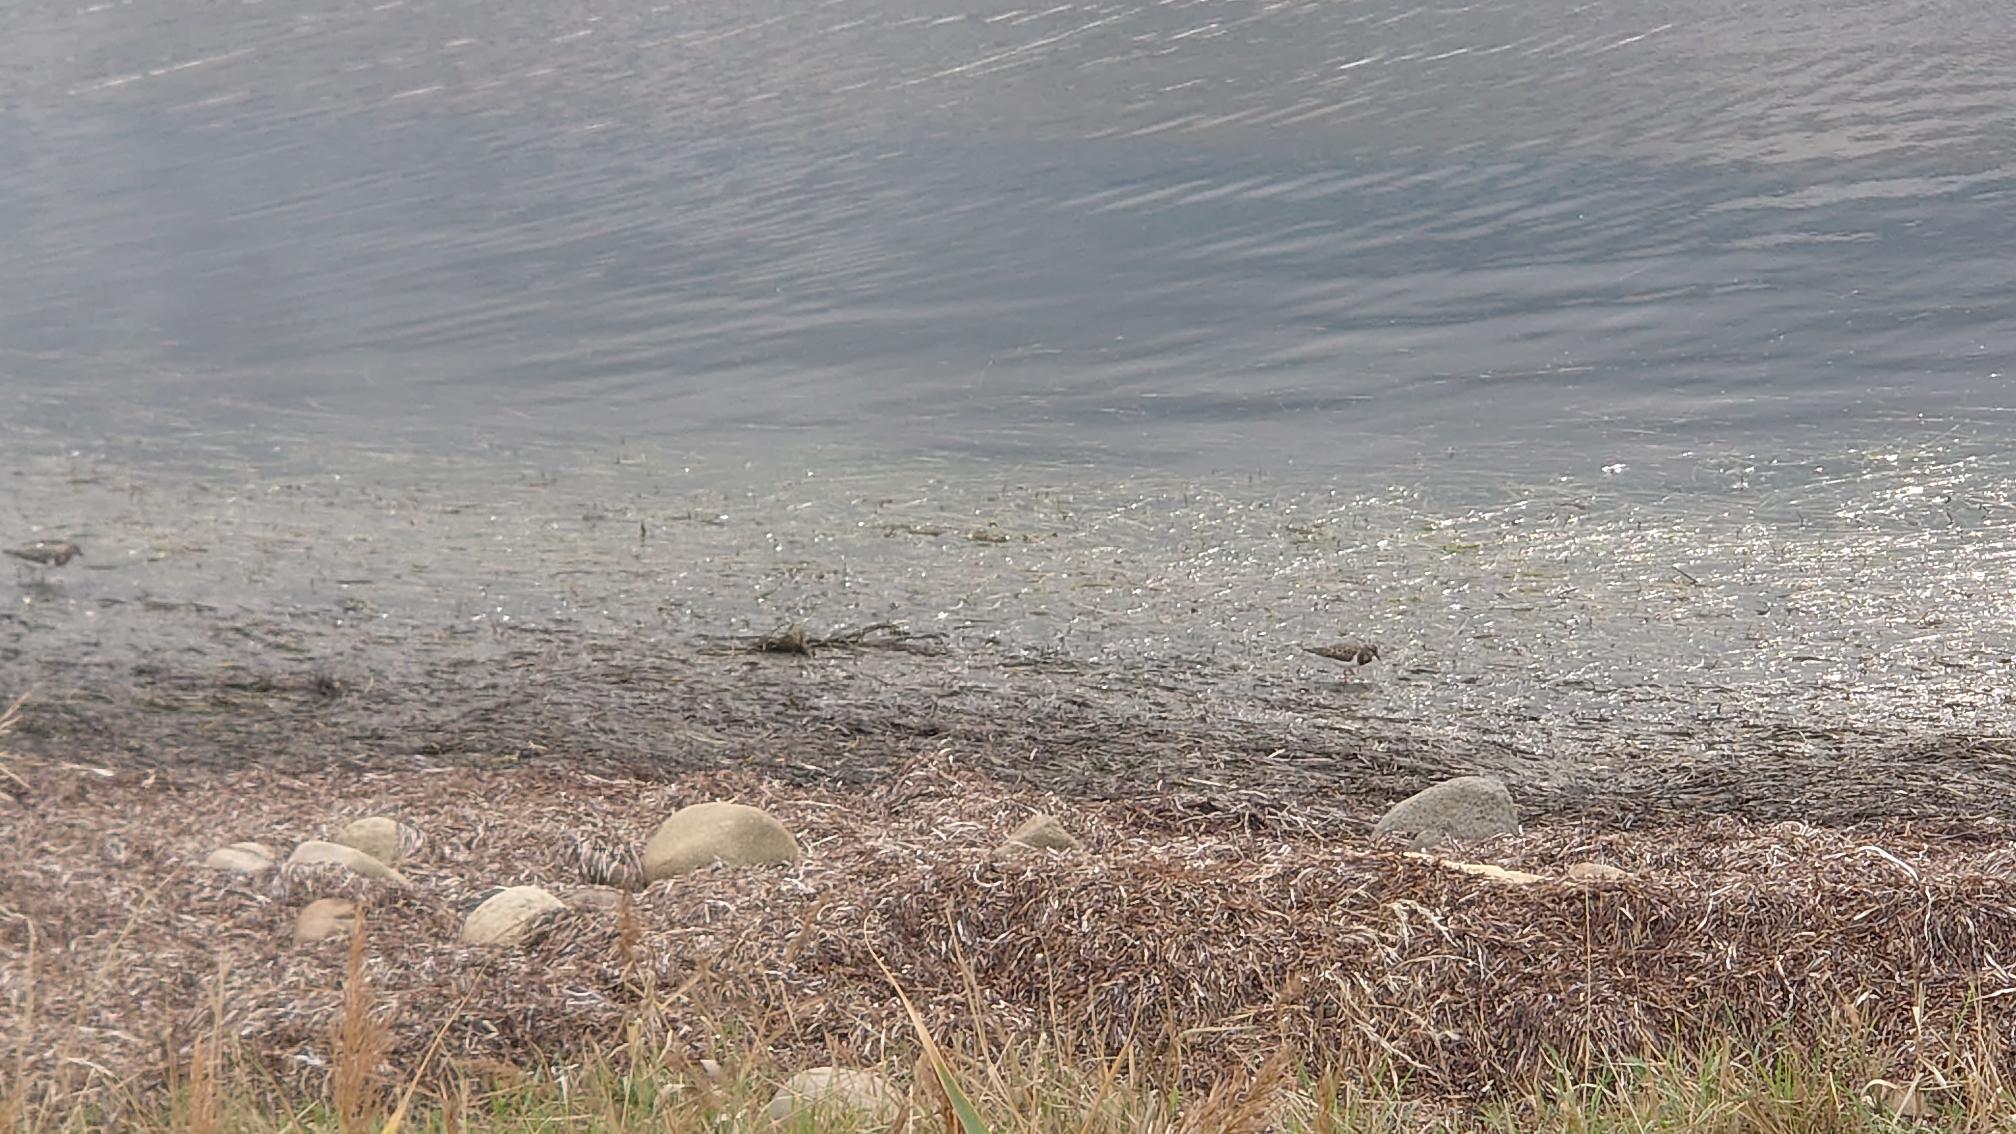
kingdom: Animalia
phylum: Chordata
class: Aves
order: Charadriiformes
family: Scolopacidae
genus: Arenaria
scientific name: Arenaria interpres
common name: Stenvender
